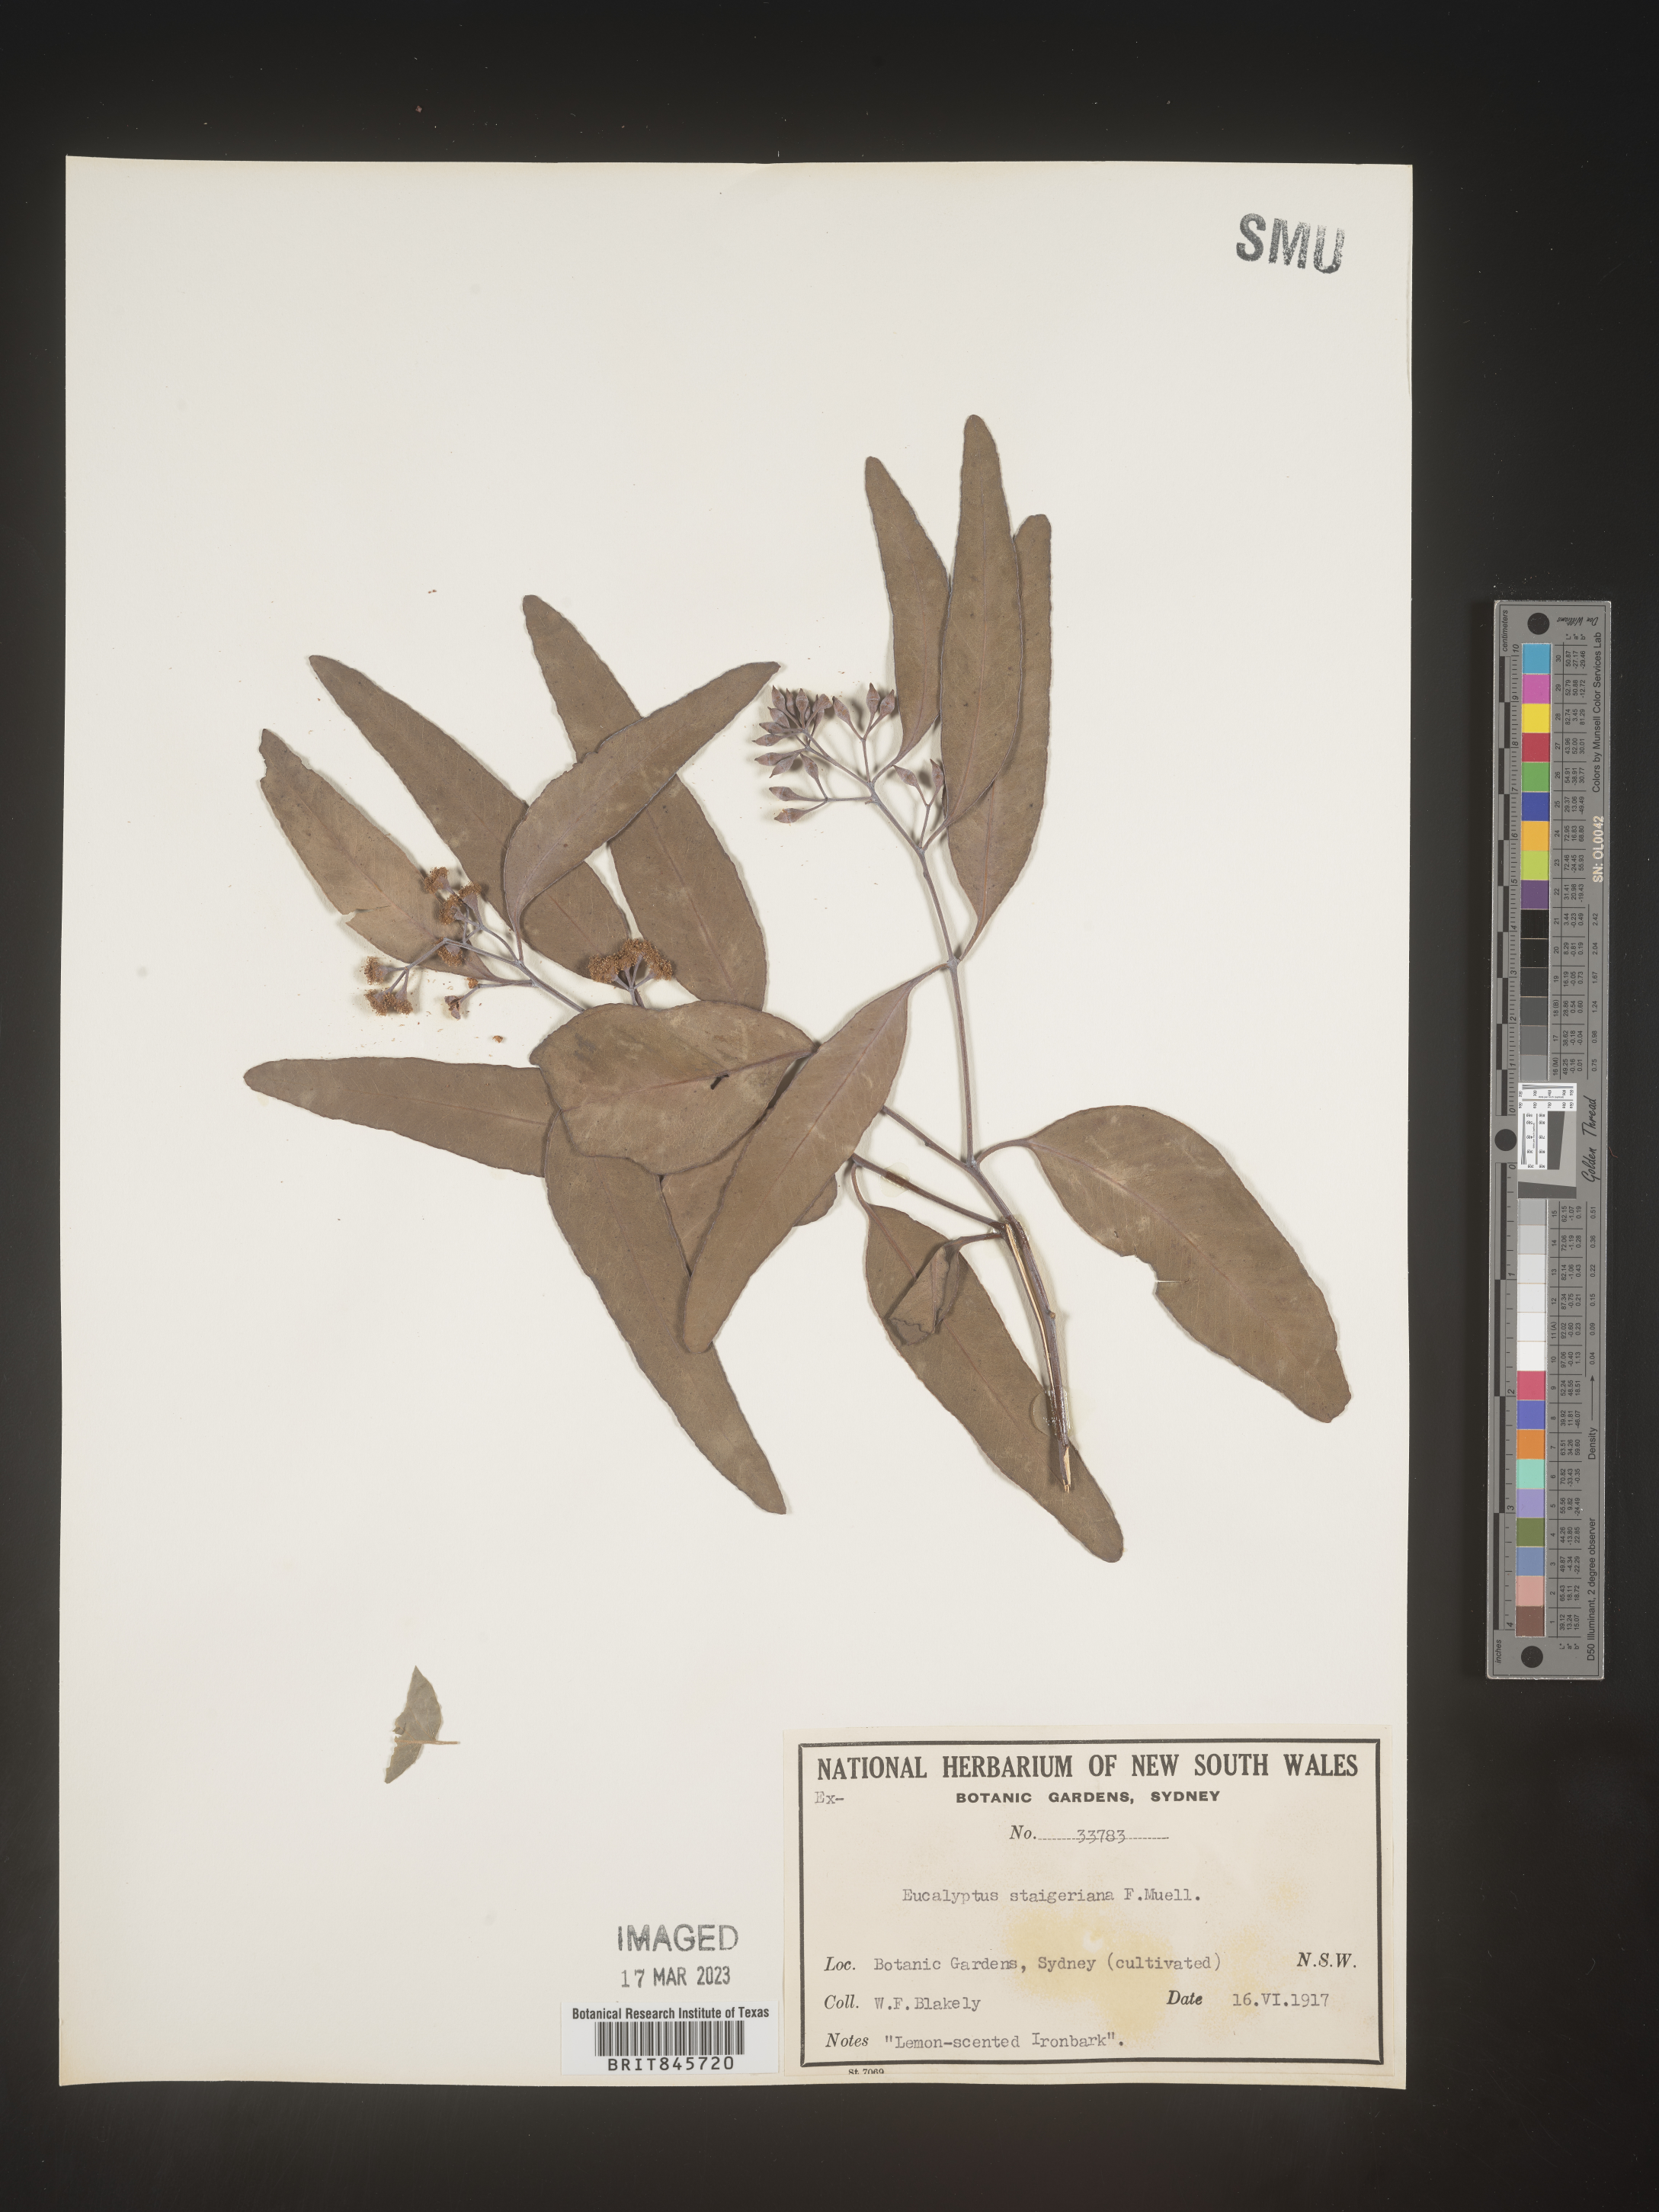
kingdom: Plantae
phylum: Tracheophyta
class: Magnoliopsida
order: Myrtales
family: Myrtaceae
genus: Eucalyptus
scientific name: Eucalyptus
